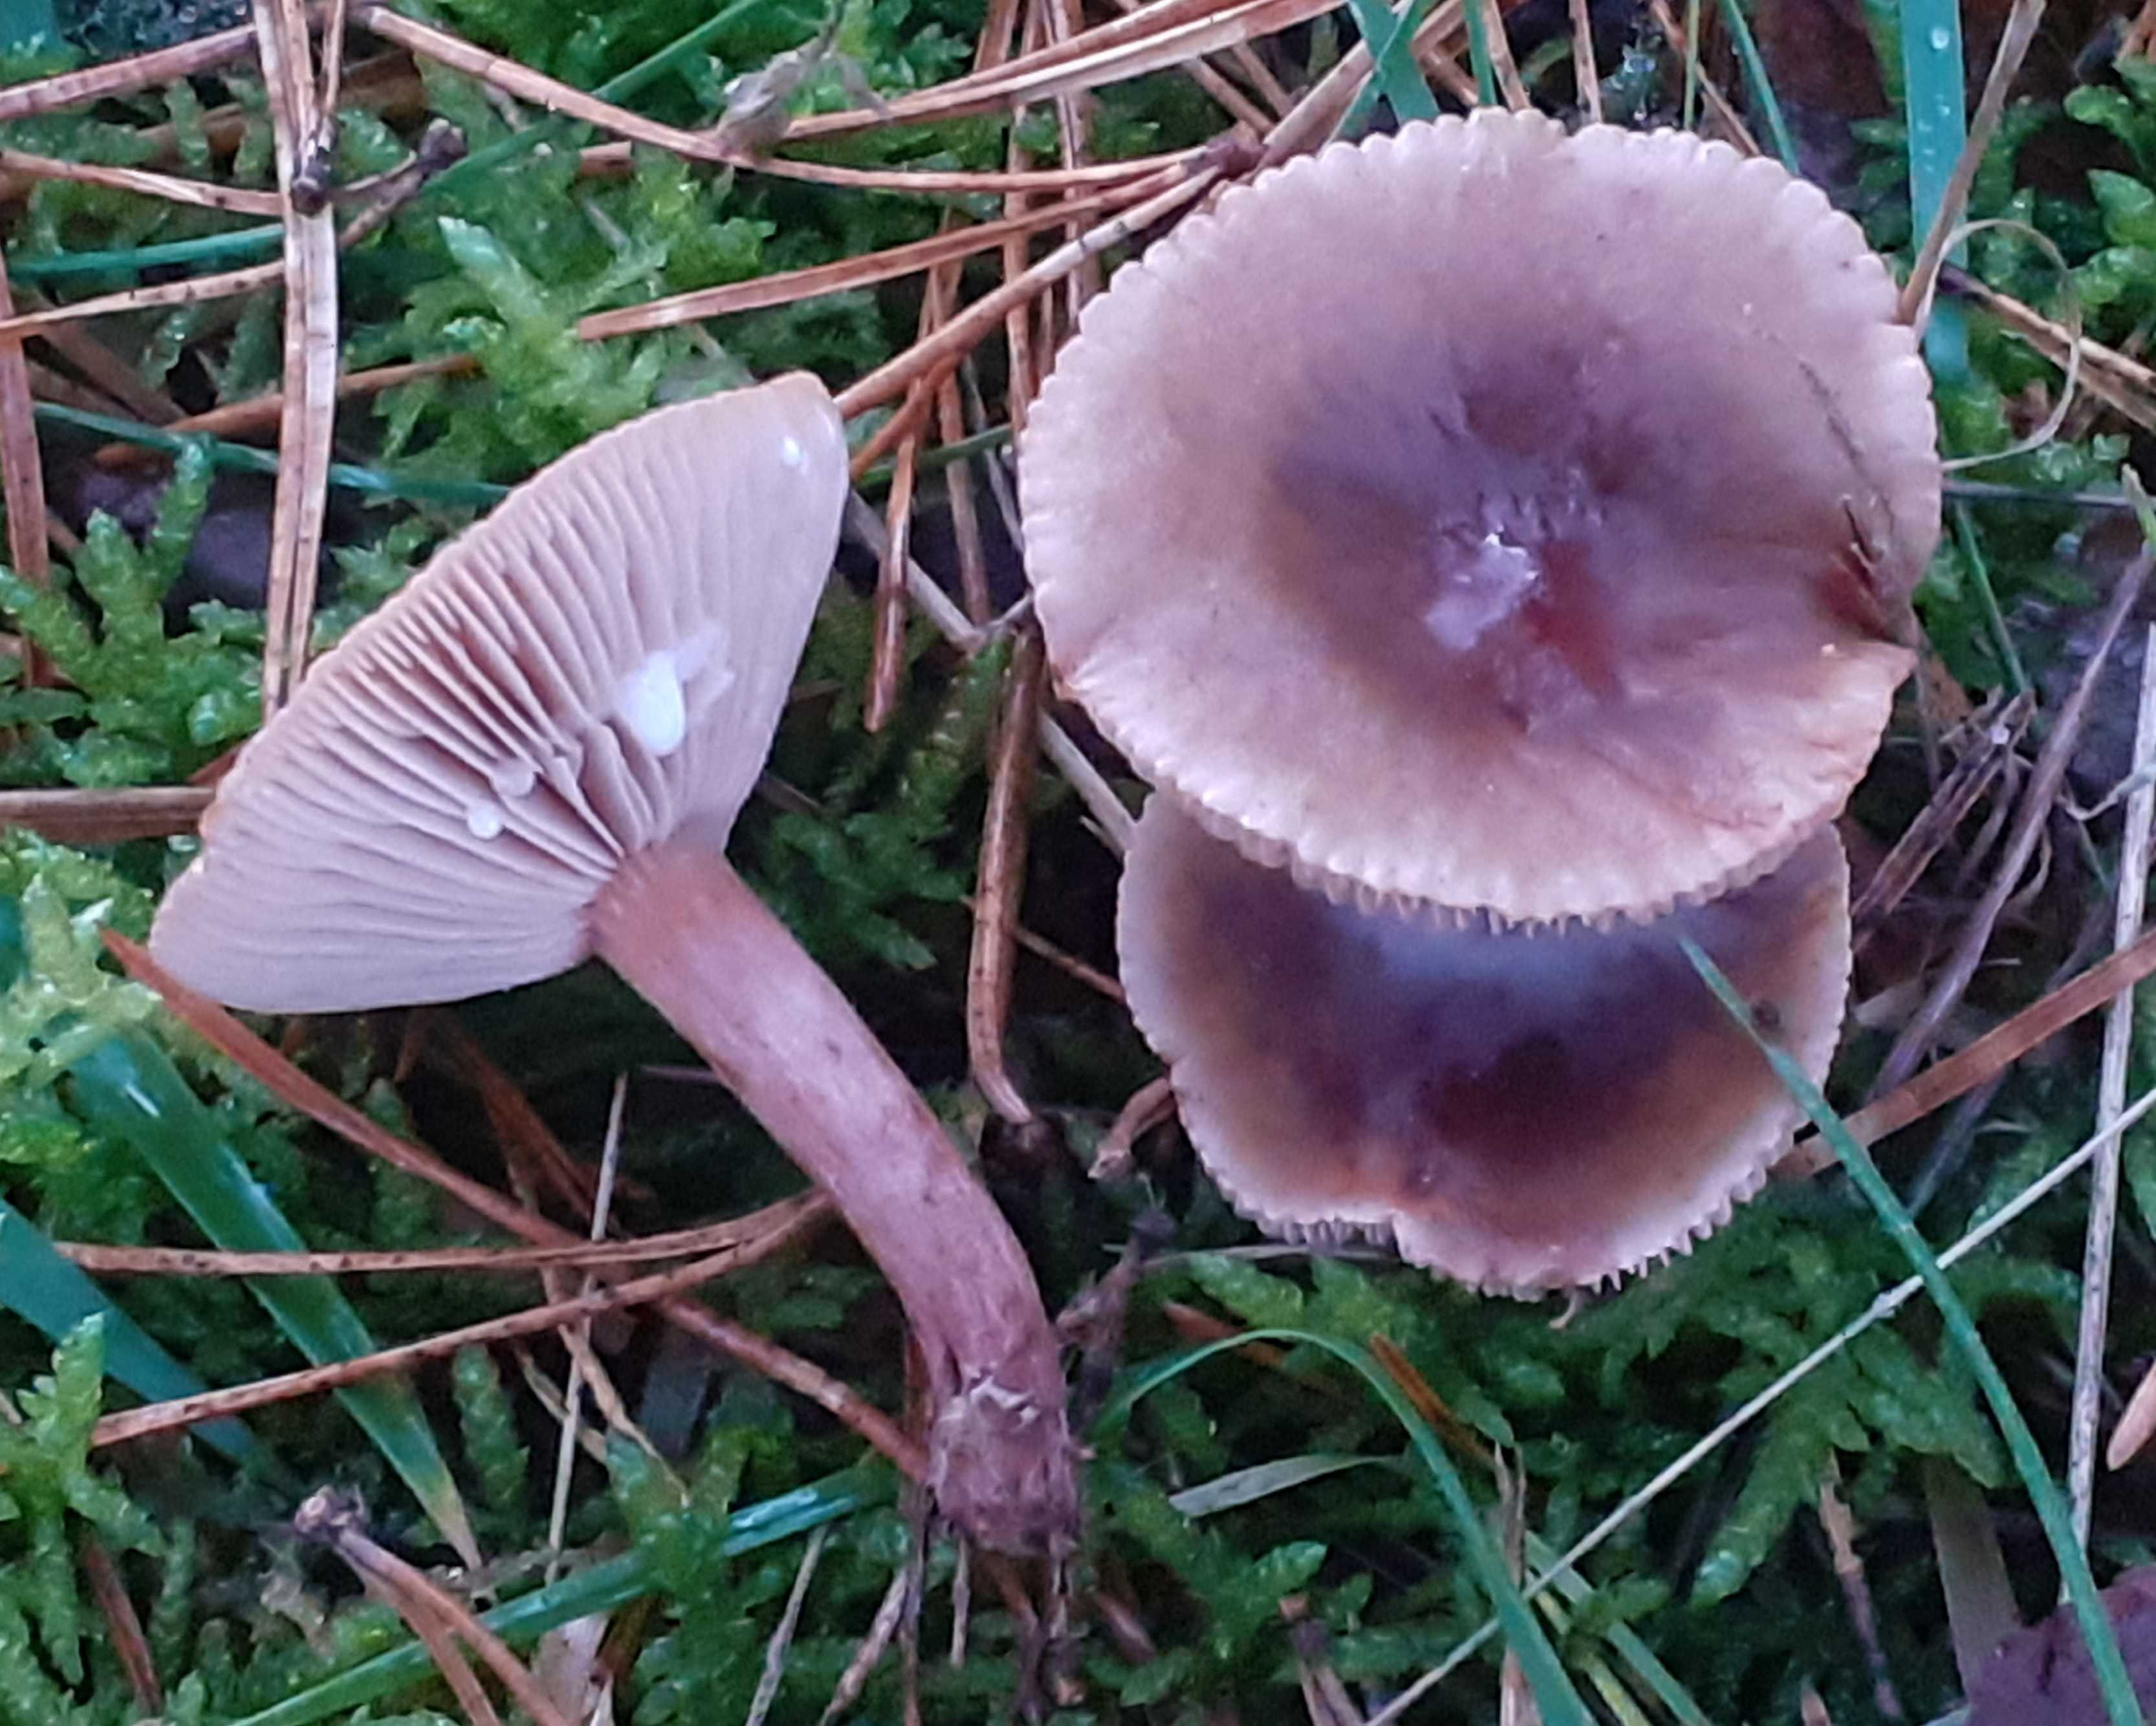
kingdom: Fungi
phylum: Basidiomycota
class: Agaricomycetes
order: Russulales
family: Russulaceae
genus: Lactarius
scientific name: Lactarius hepaticus
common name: leverbrun mælkehat
